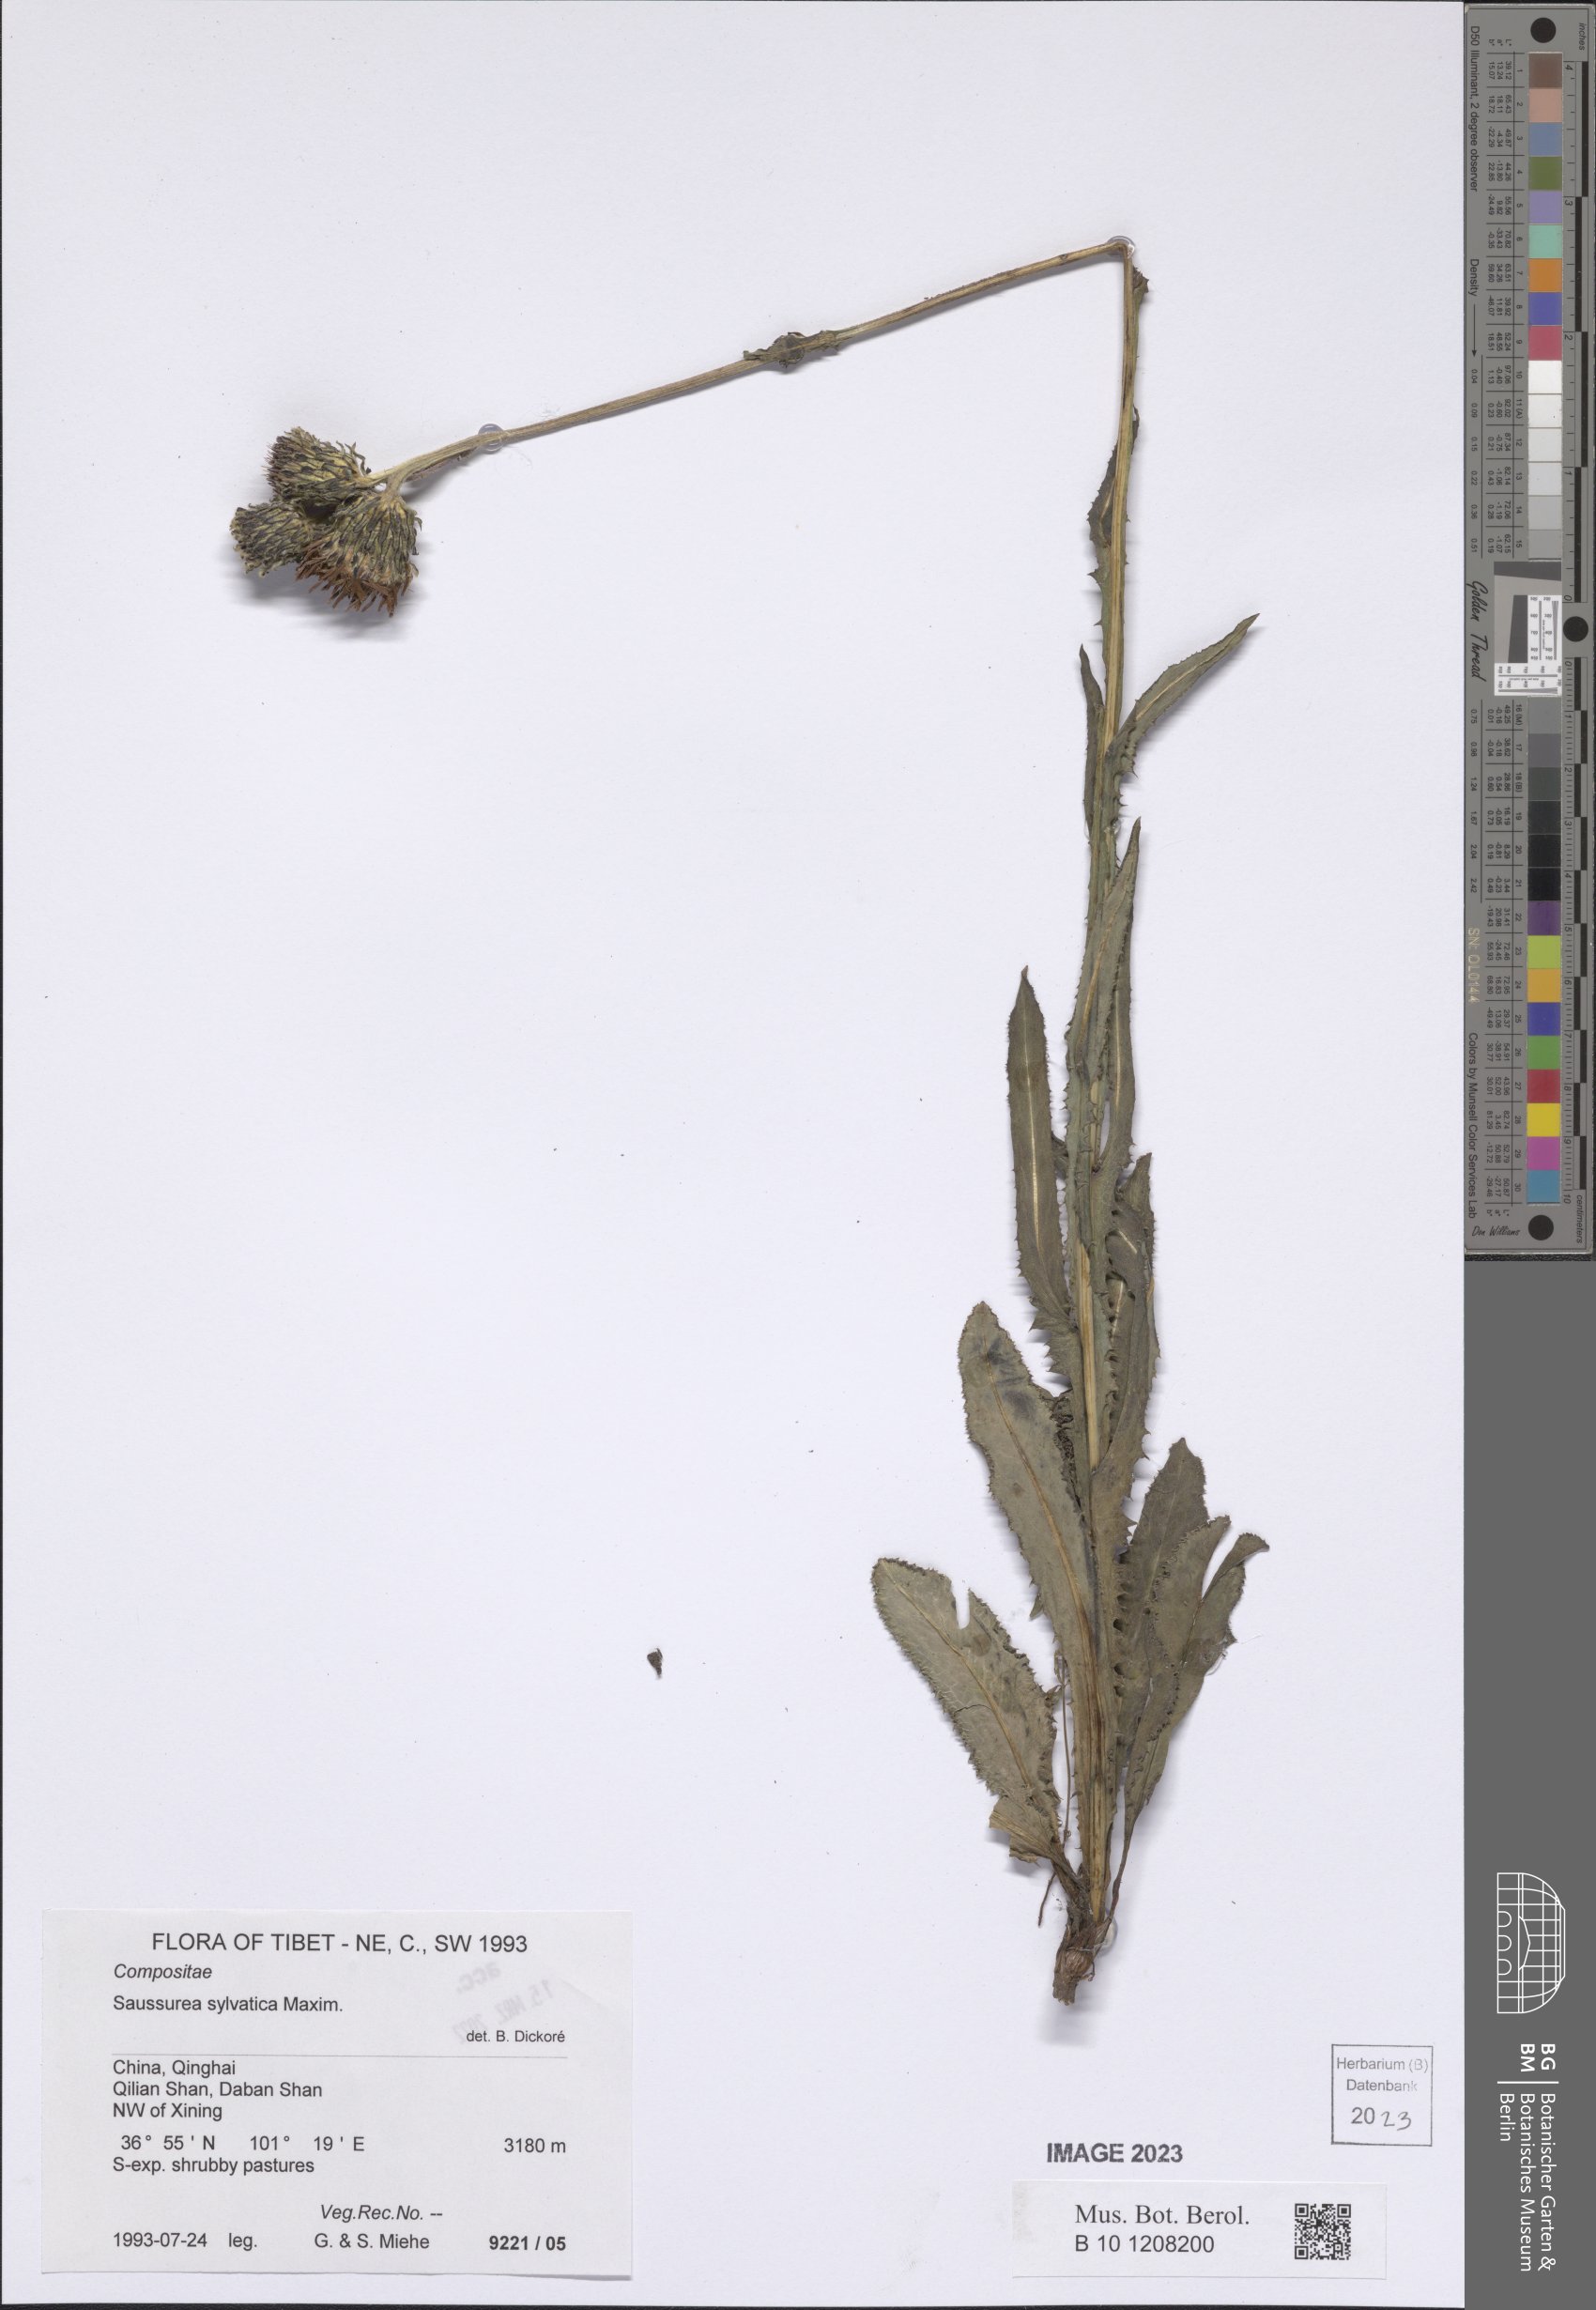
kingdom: Plantae
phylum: Tracheophyta
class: Magnoliopsida
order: Asterales
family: Asteraceae
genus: Saussurea
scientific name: Saussurea sylvatica
